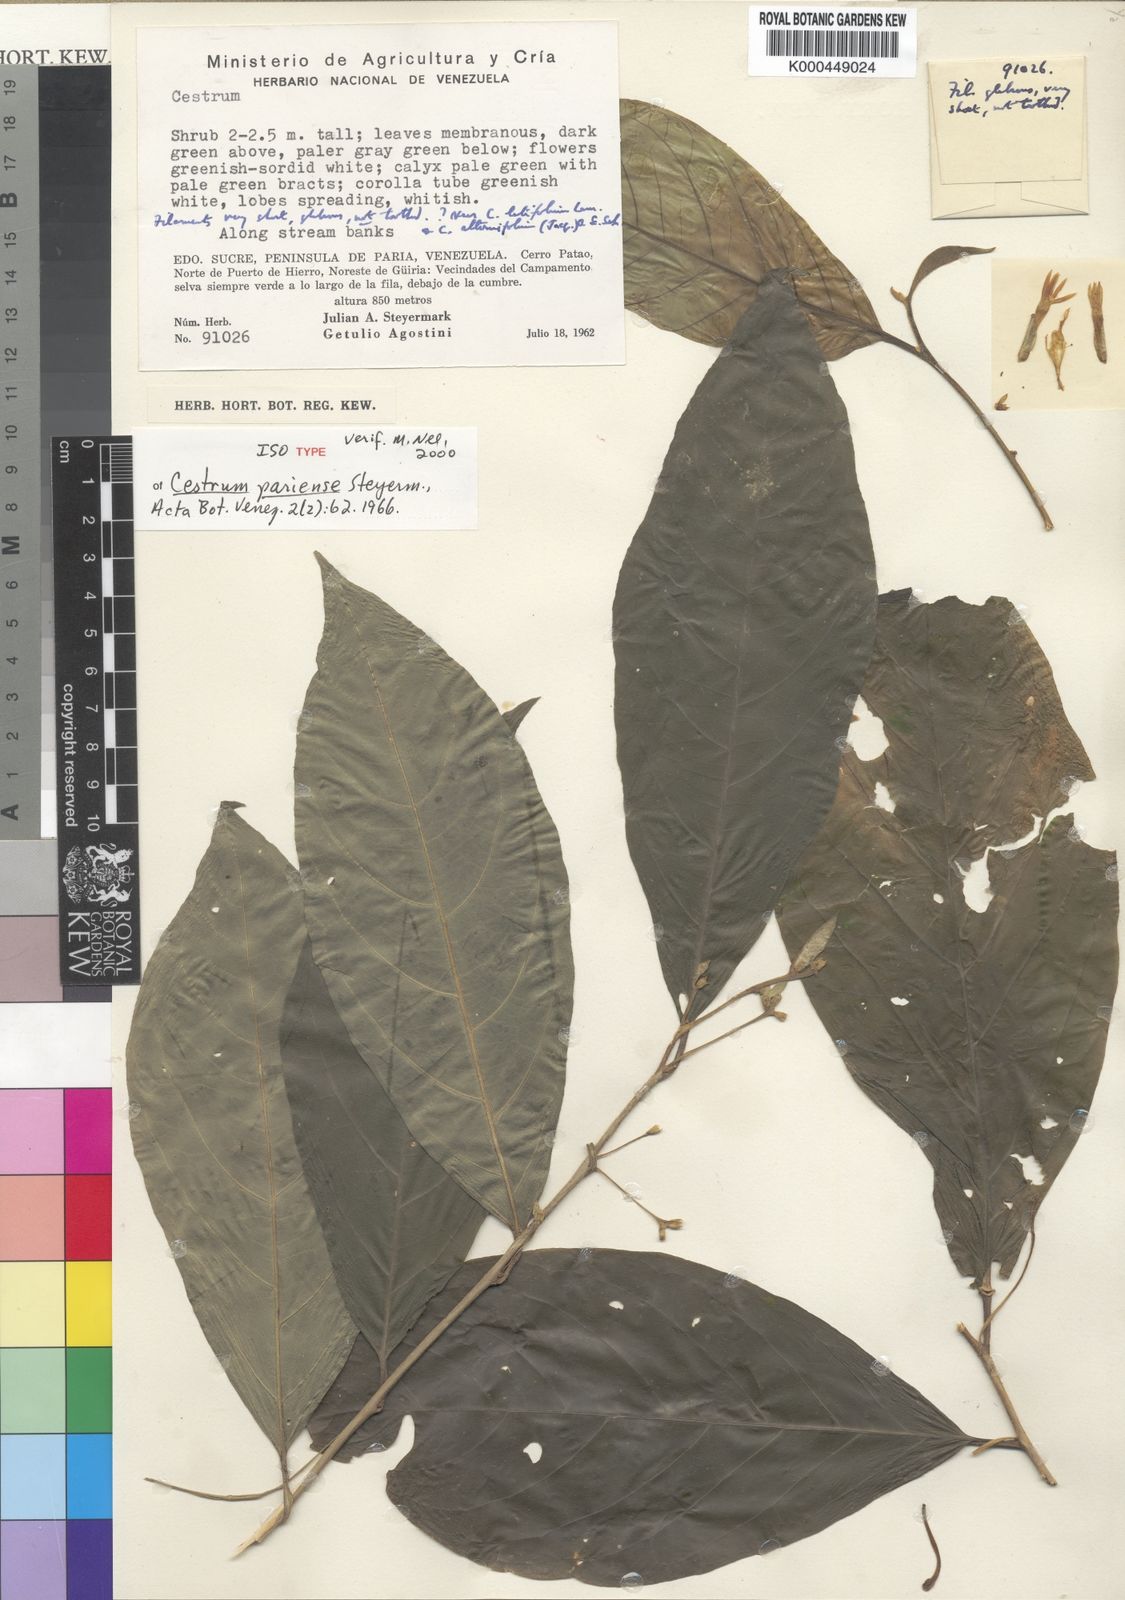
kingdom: Plantae
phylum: Tracheophyta
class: Magnoliopsida
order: Solanales
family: Solanaceae
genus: Cestrum
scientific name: Cestrum pariense
